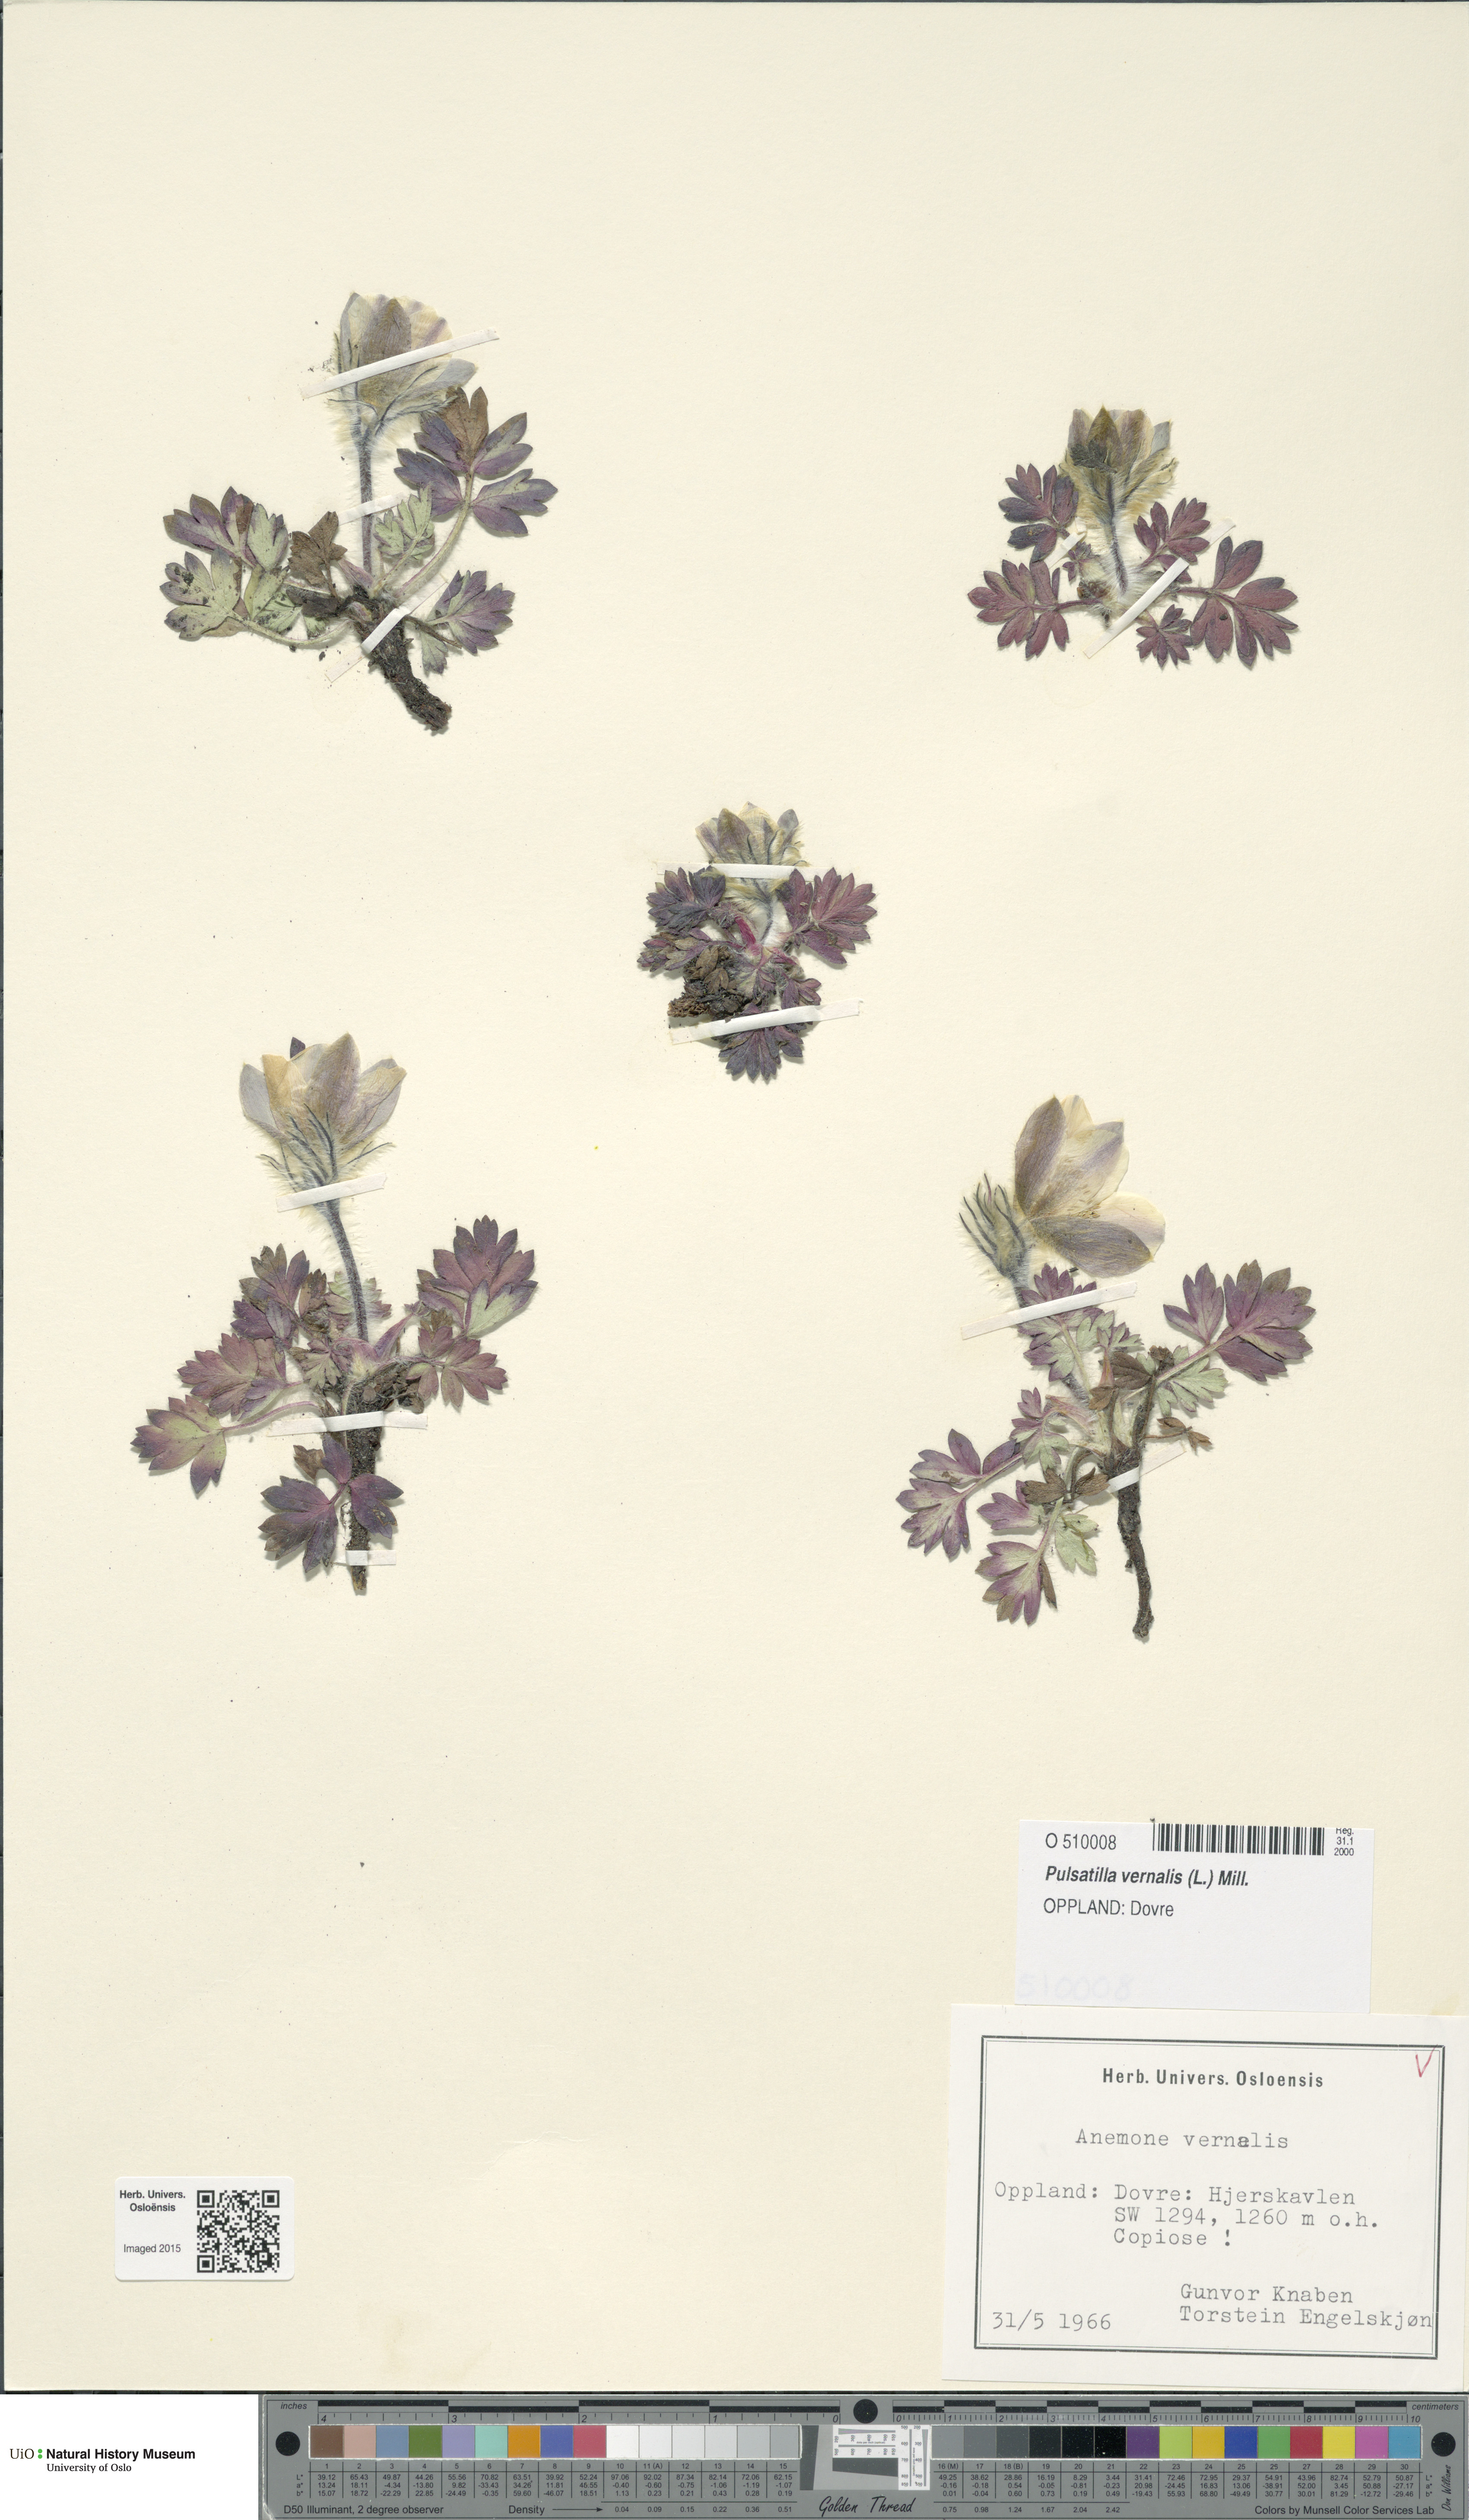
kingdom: Plantae
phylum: Tracheophyta
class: Magnoliopsida
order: Ranunculales
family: Ranunculaceae
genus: Pulsatilla
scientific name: Pulsatilla vernalis
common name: Spring pasque flower
